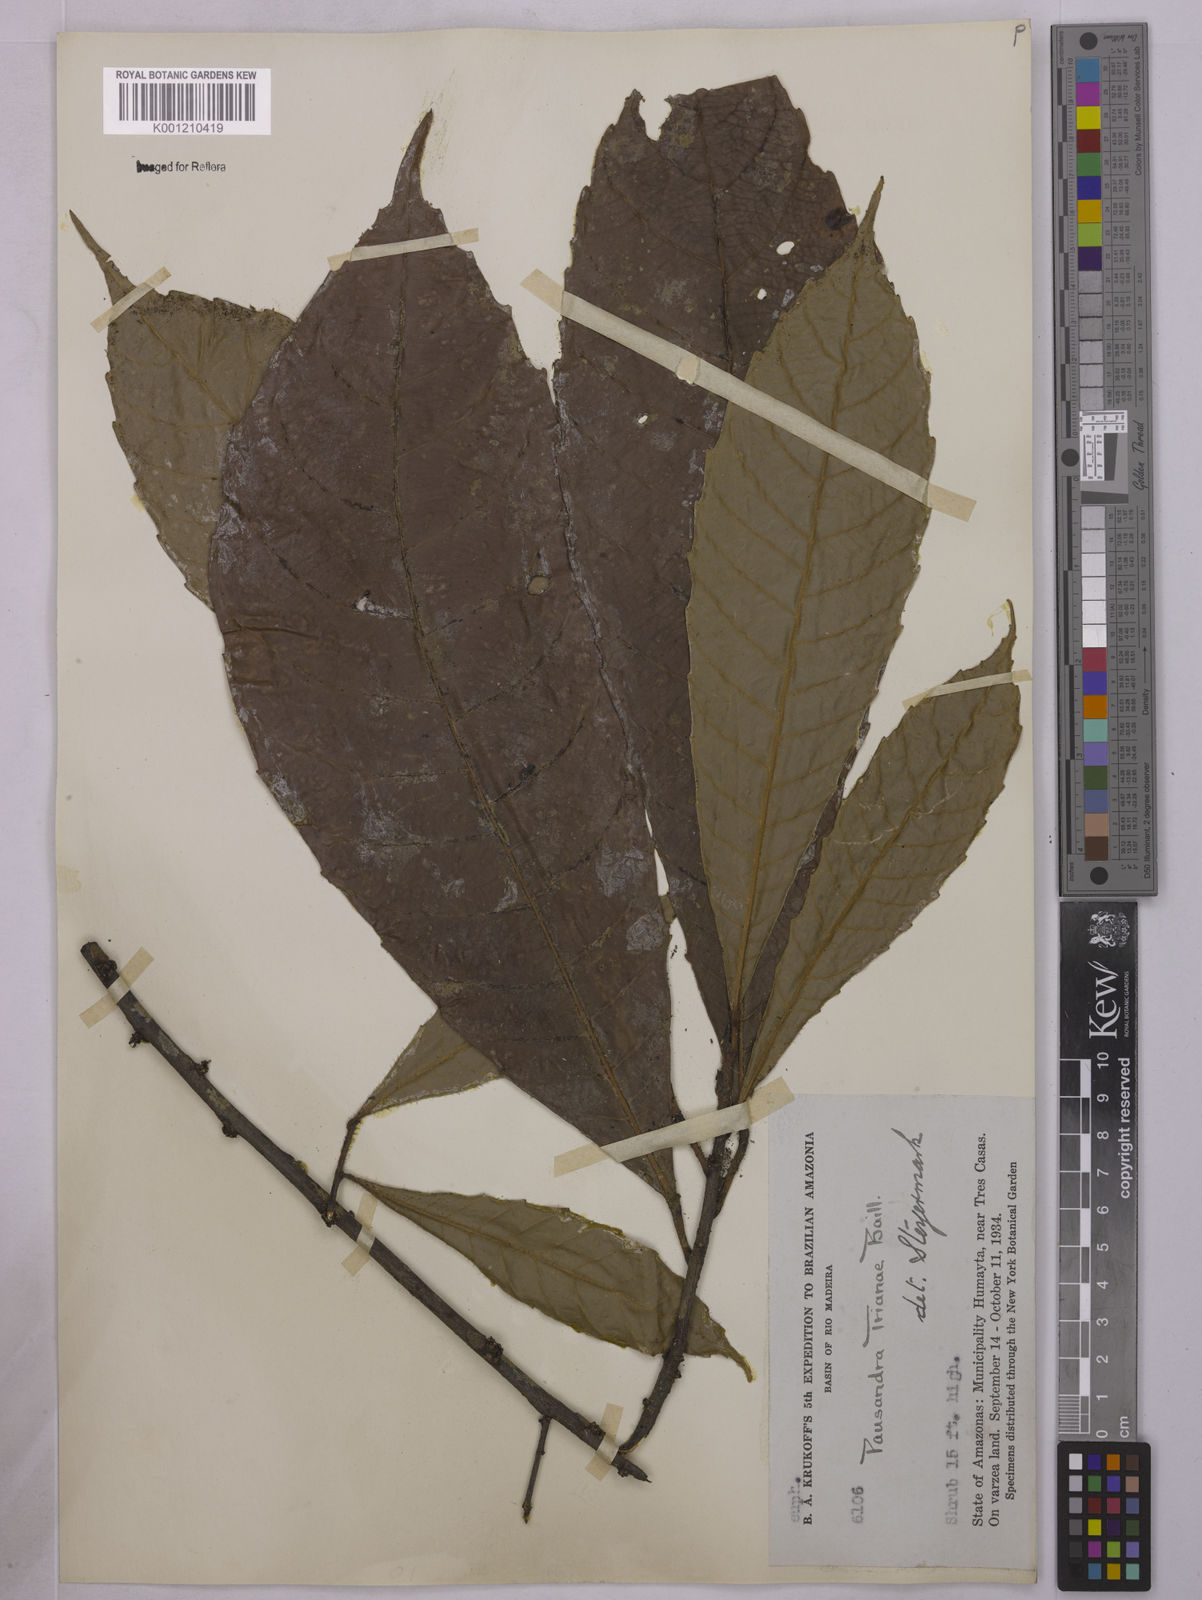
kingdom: Plantae
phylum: Tracheophyta
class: Magnoliopsida
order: Malpighiales
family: Euphorbiaceae
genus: Pausandra
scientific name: Pausandra
